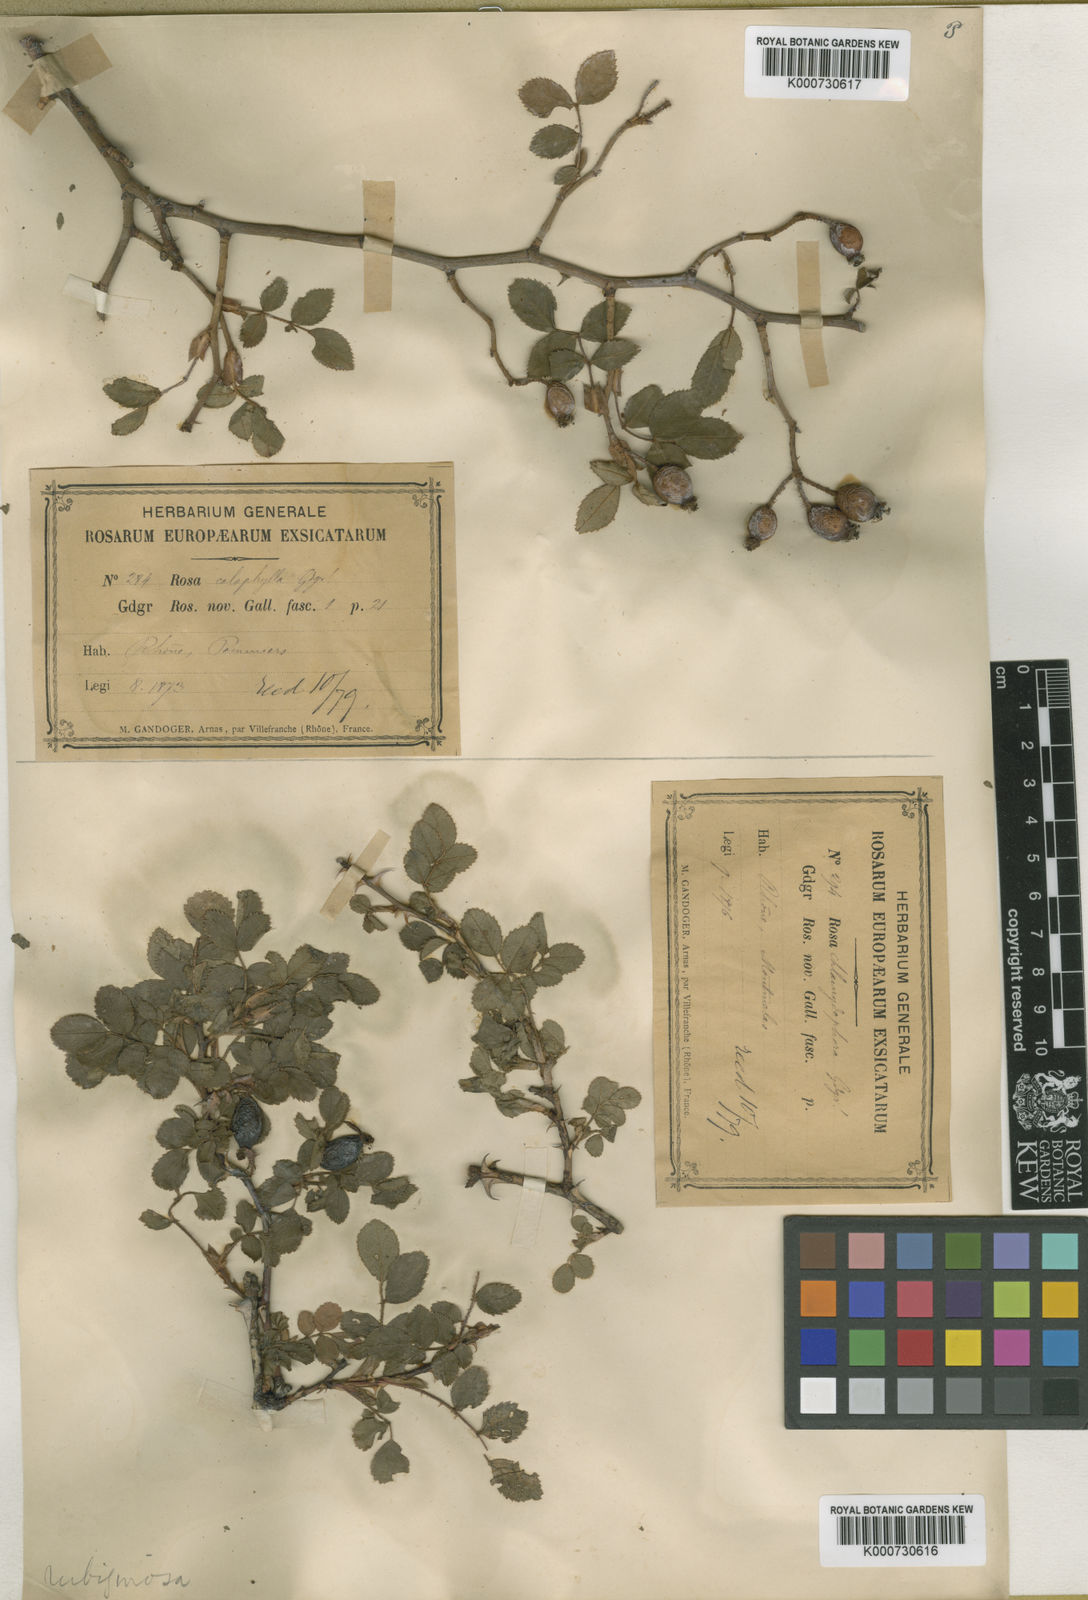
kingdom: Plantae
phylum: Tracheophyta
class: Magnoliopsida
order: Rosales
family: Rosaceae
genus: Rosa
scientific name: Rosa rubiginosa
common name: Sweet-briar
